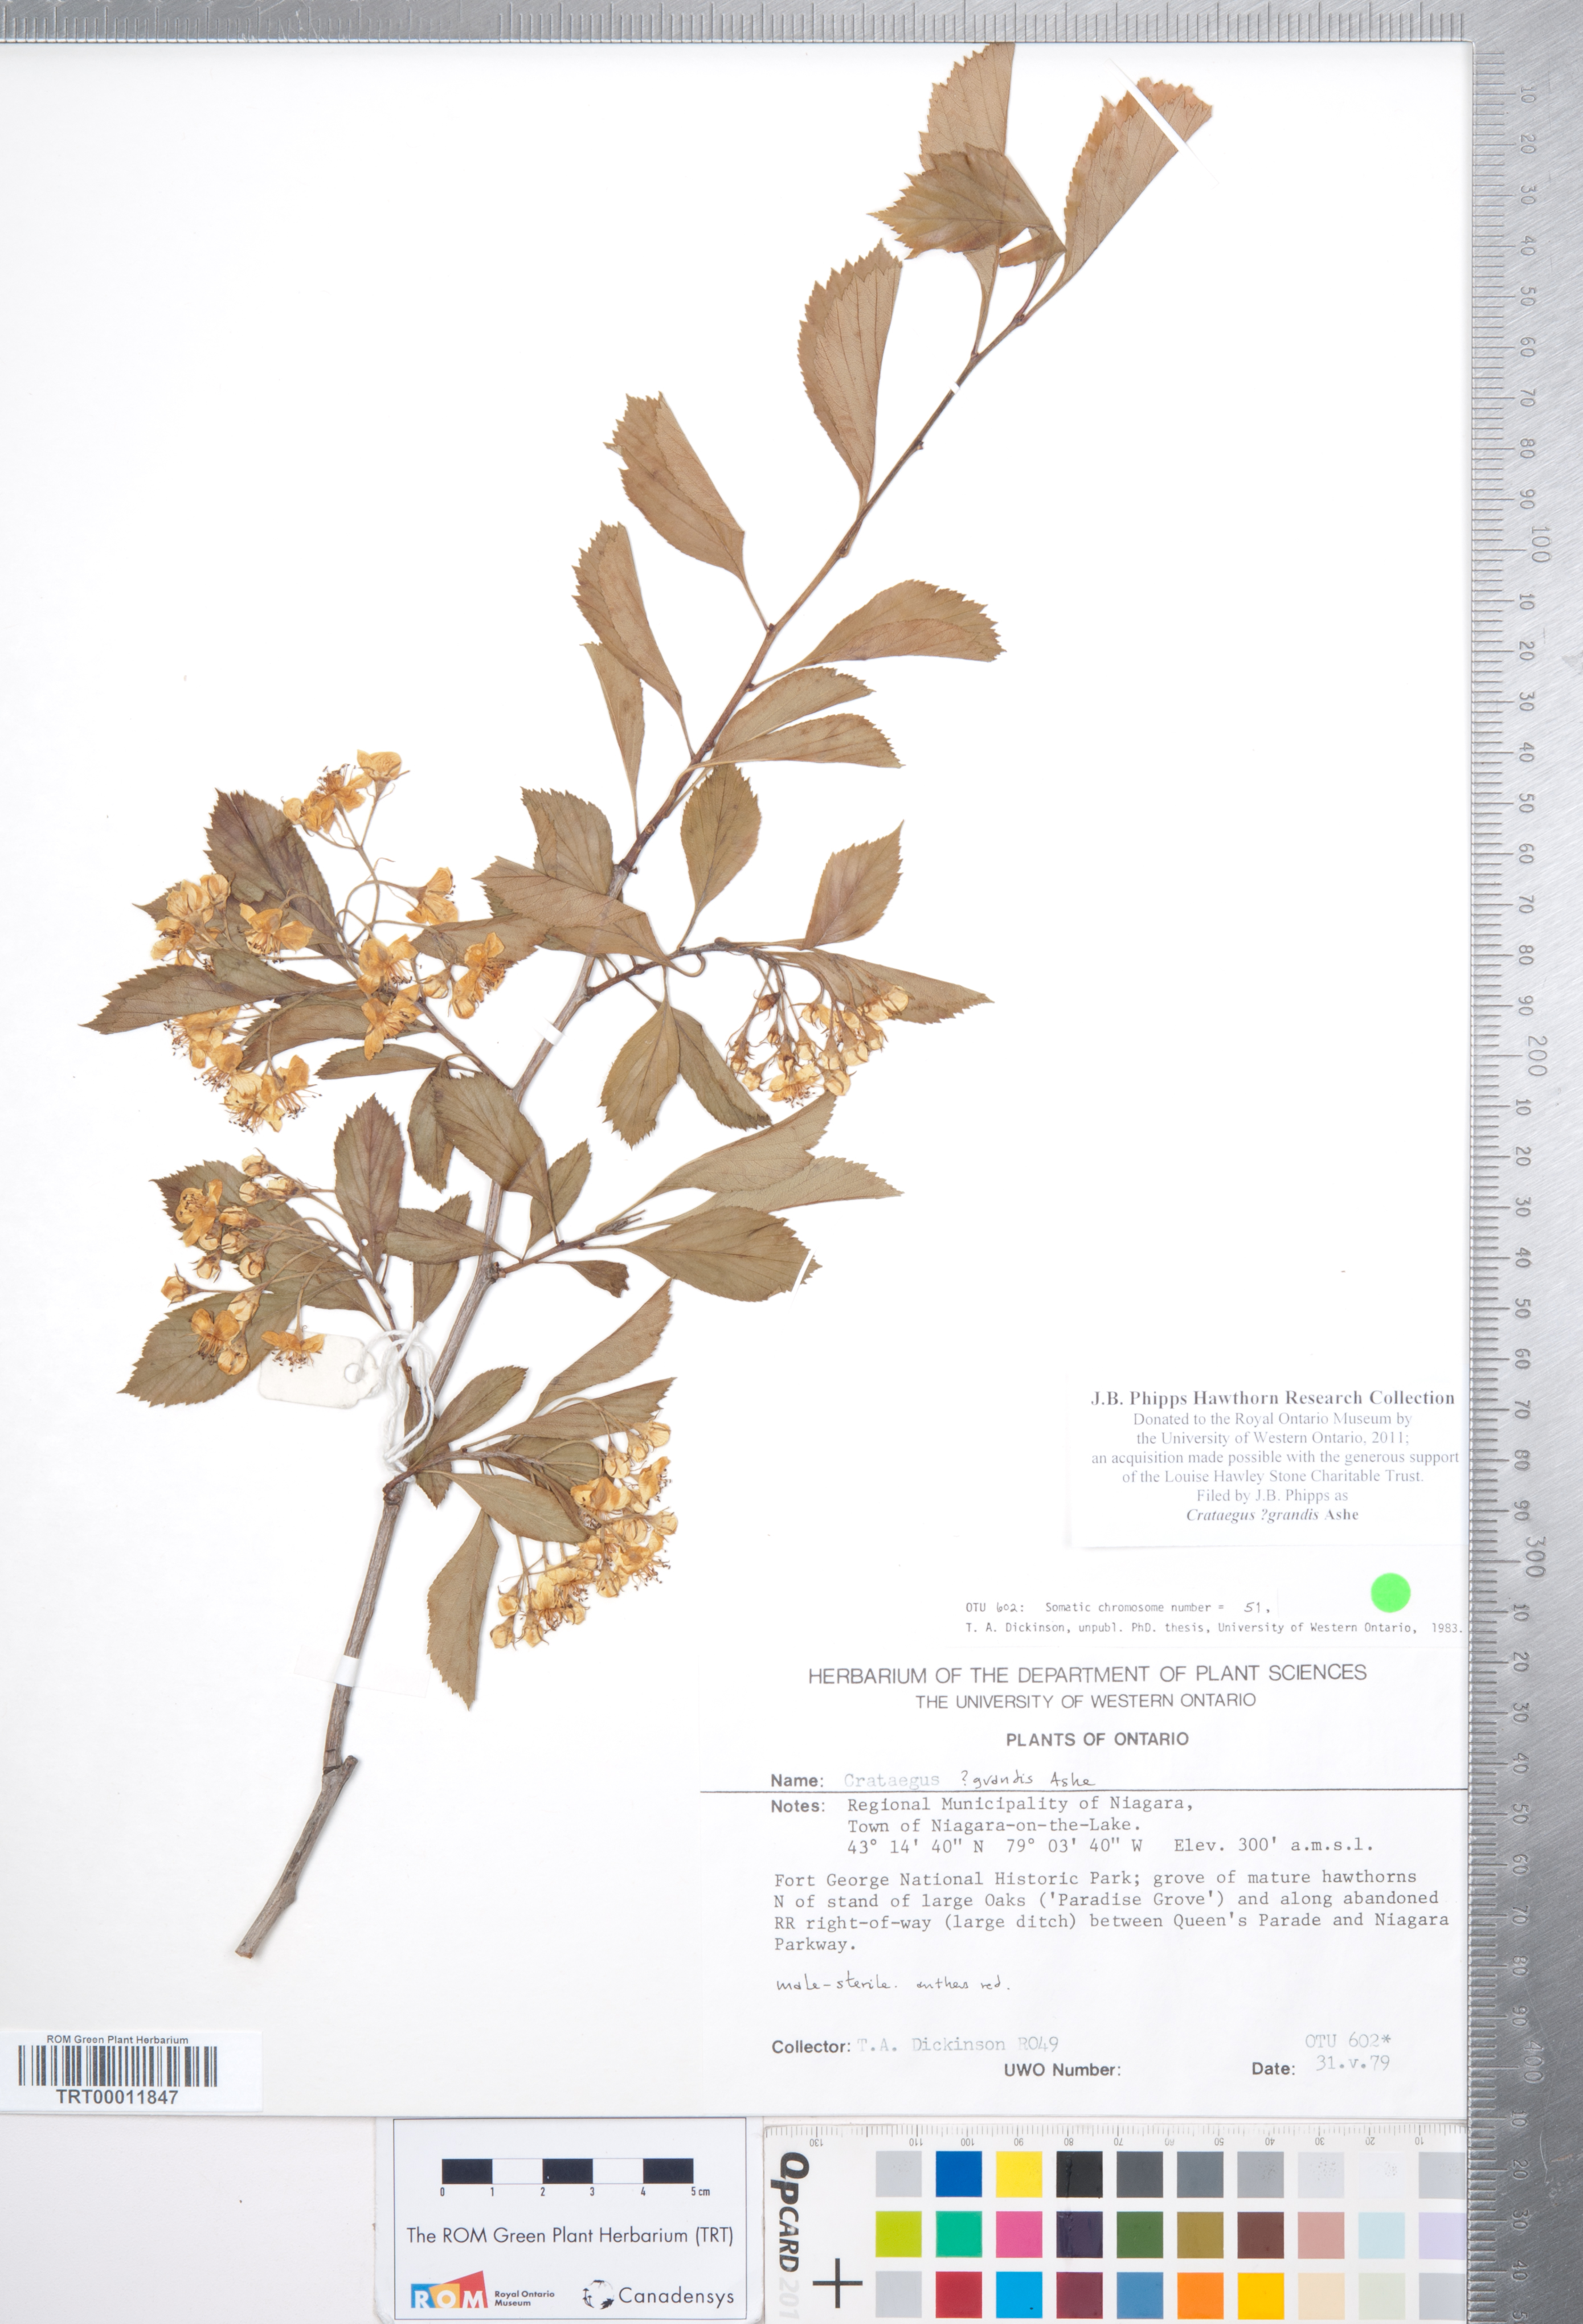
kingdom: Plantae
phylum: Tracheophyta
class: Magnoliopsida
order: Rosales
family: Rosaceae
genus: Crataegus
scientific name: Crataegus disperma
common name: Spreading hawthorn
